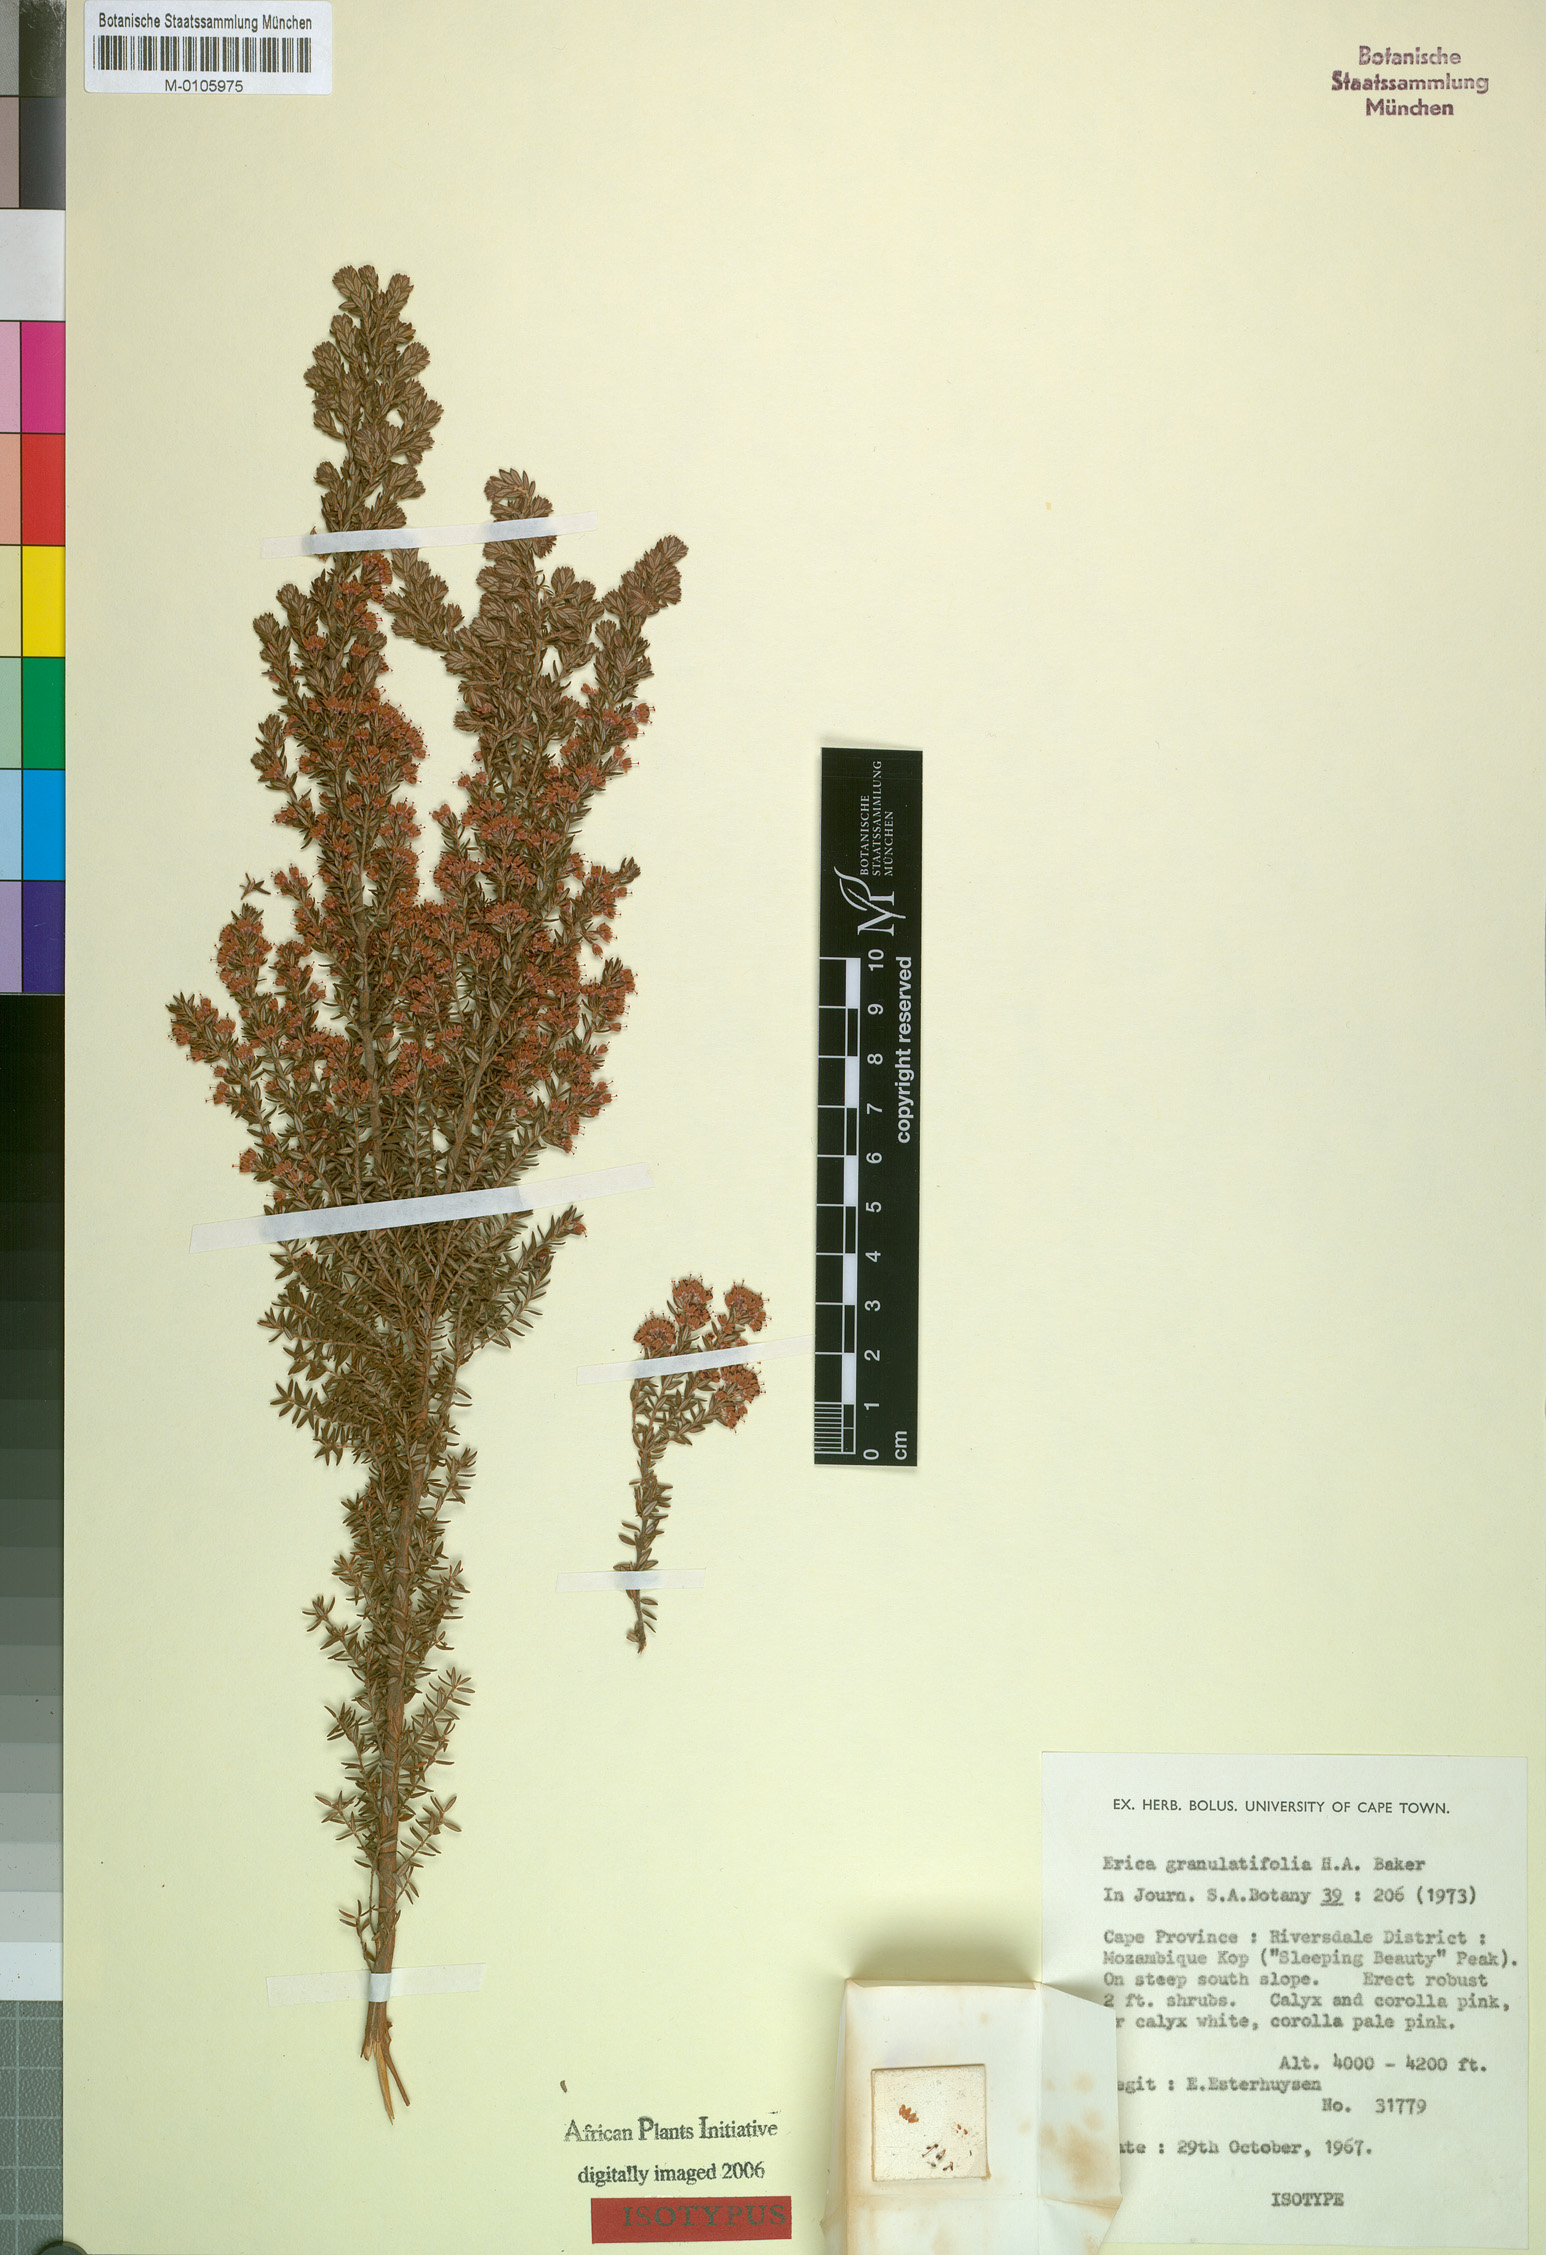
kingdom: Plantae
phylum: Tracheophyta
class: Magnoliopsida
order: Ericales
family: Ericaceae
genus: Erica
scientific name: Erica granulatifolia
